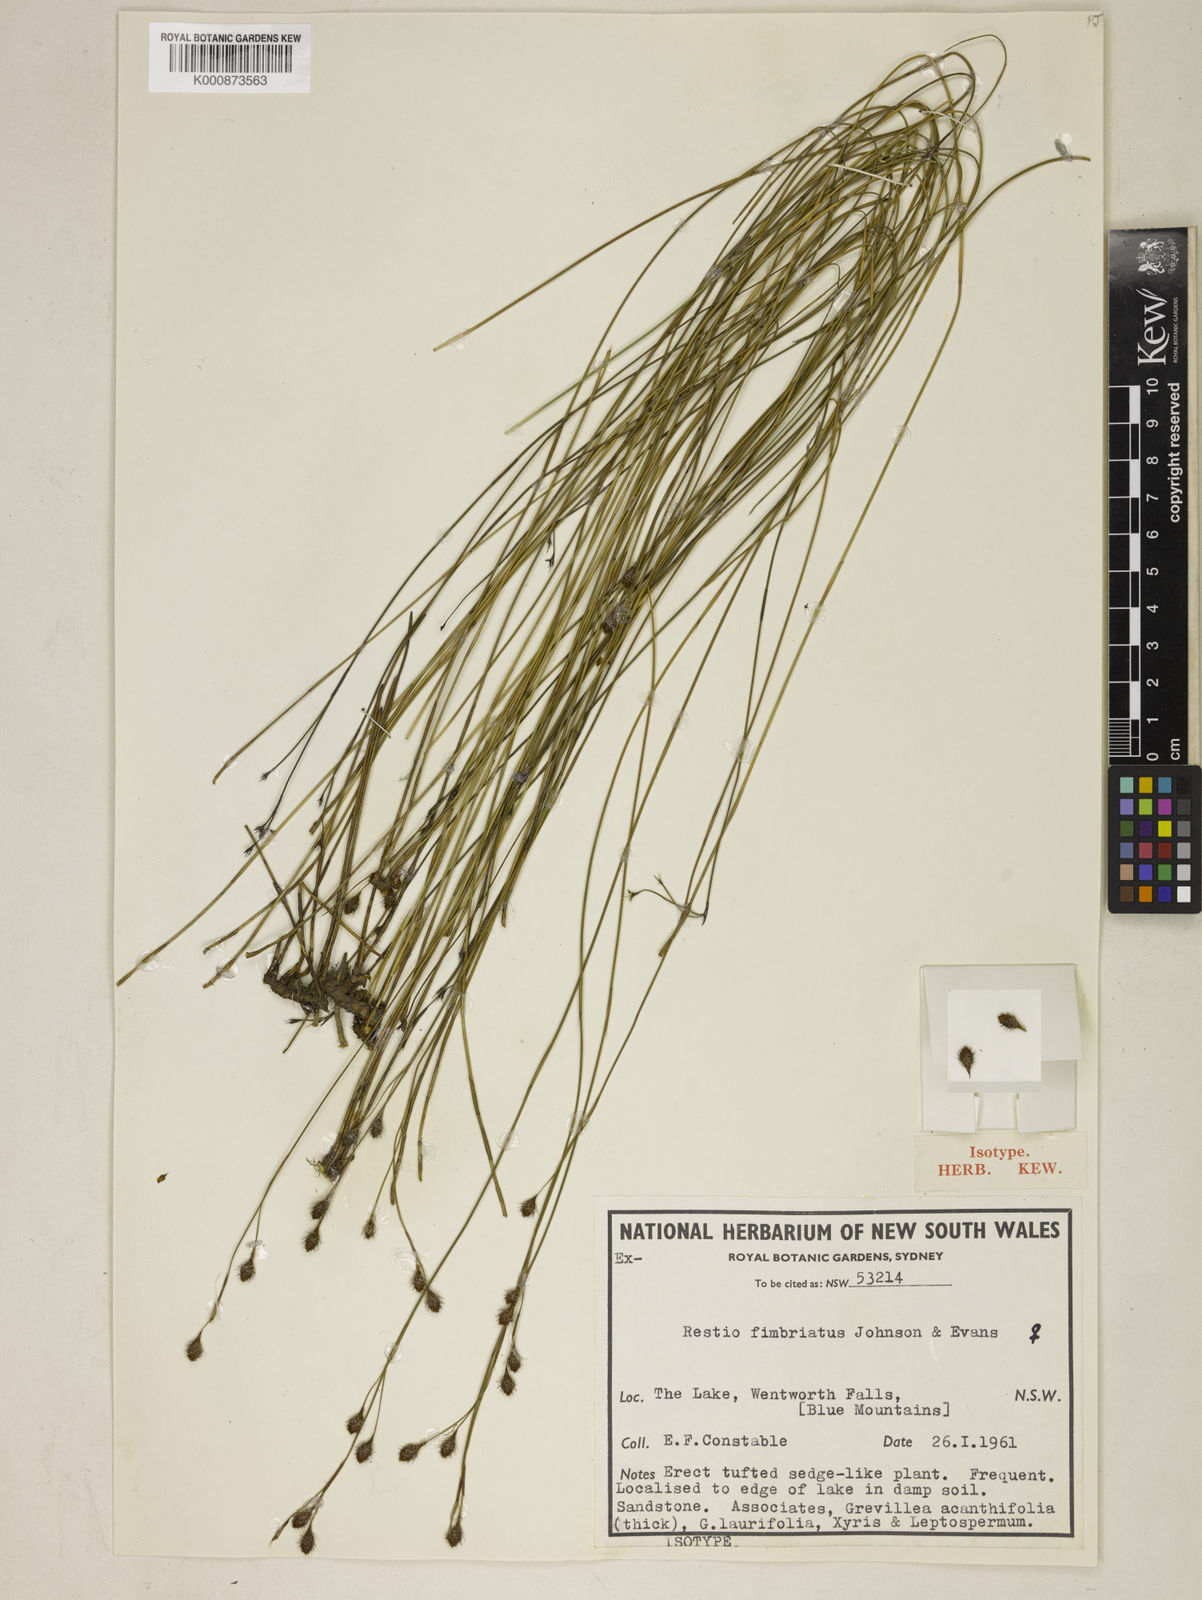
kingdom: Plantae
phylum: Tracheophyta
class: Liliopsida
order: Poales
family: Restionaceae
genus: Baloskion
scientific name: Baloskion fimbriatum
